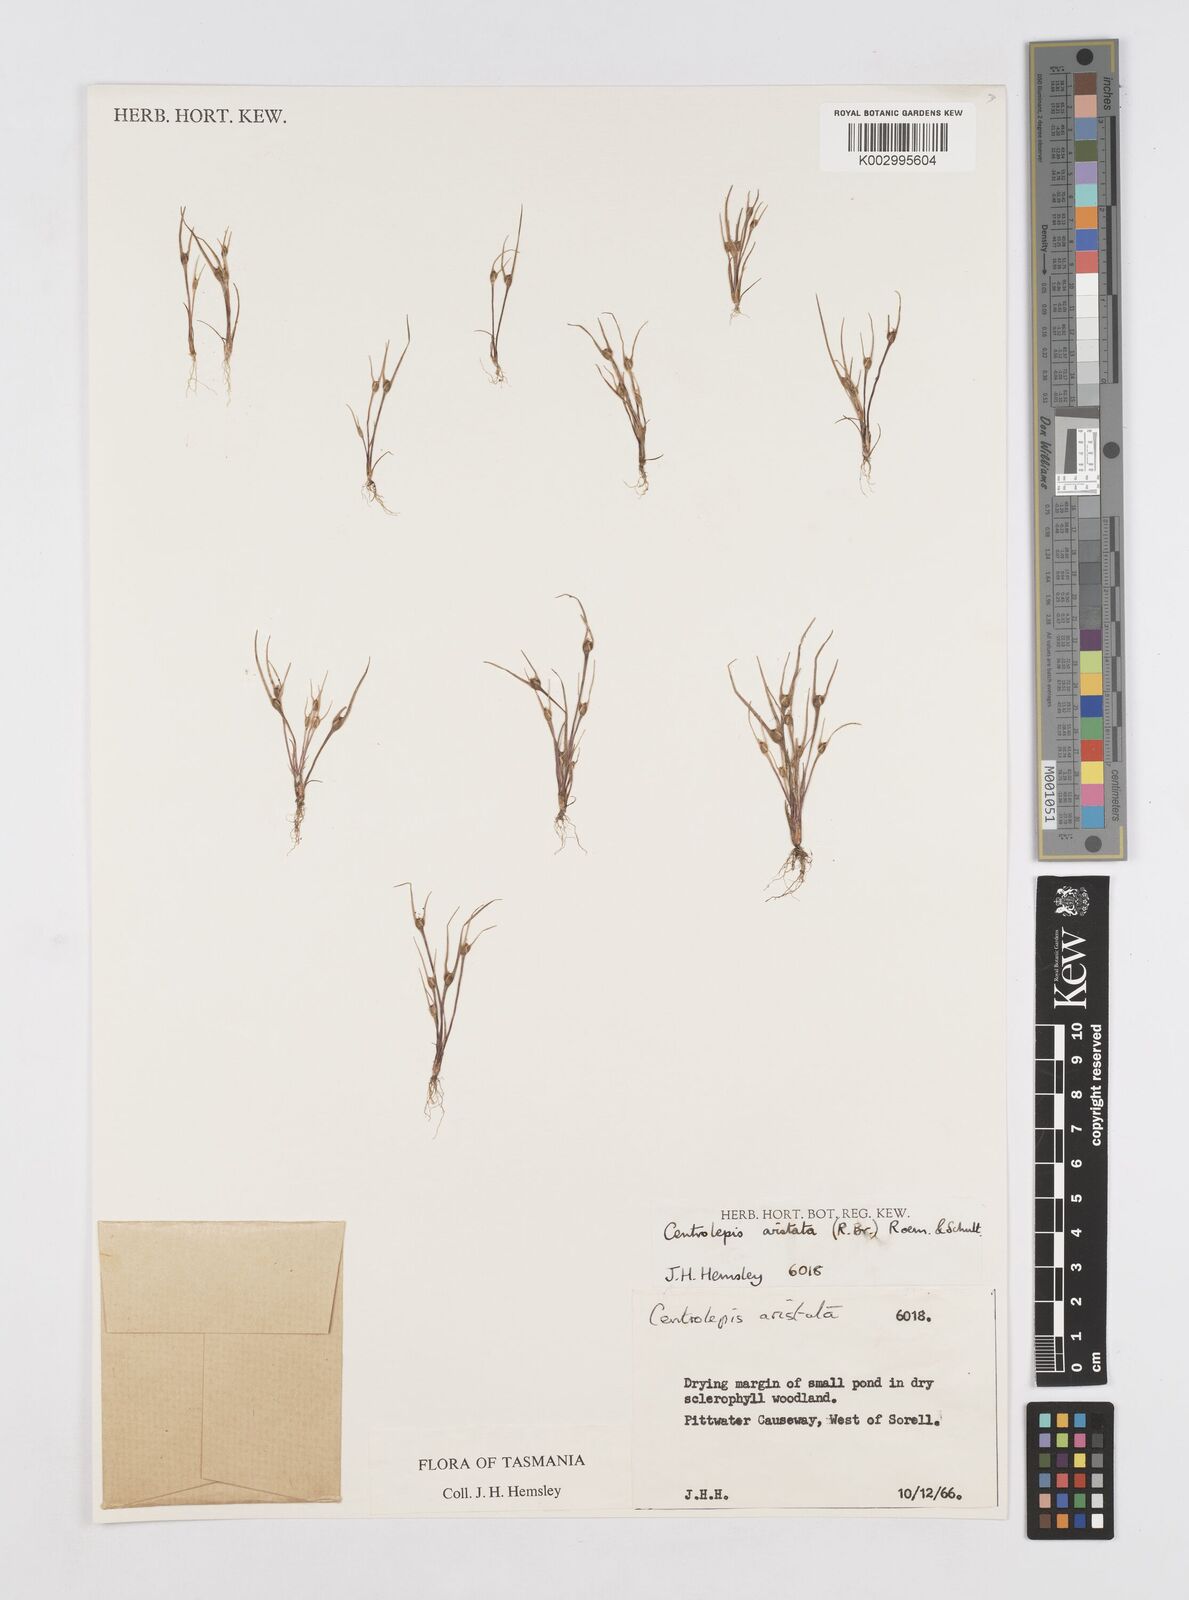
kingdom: Plantae
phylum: Tracheophyta
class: Liliopsida
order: Poales
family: Restionaceae
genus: Centrolepis
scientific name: Centrolepis aristata
